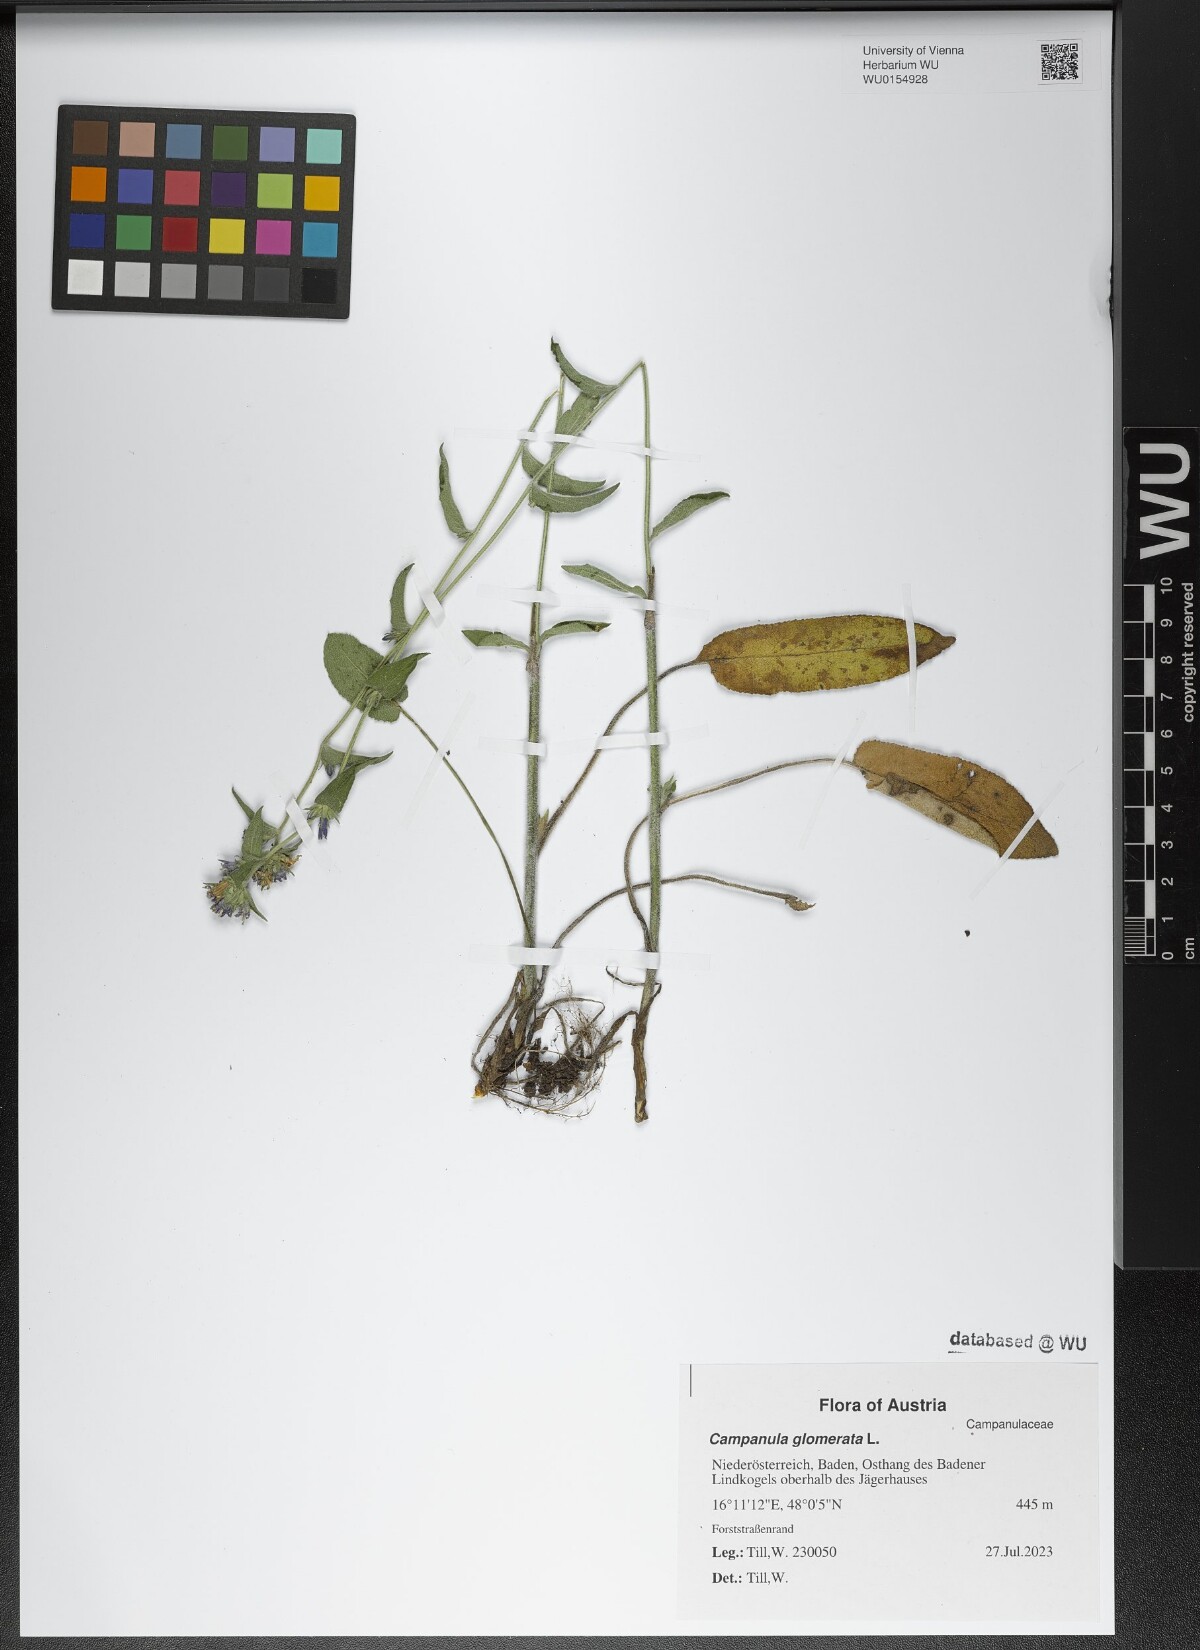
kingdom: Plantae
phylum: Tracheophyta
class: Magnoliopsida
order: Asterales
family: Campanulaceae
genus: Campanula
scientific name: Campanula glomerata
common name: Clustered bellflower
